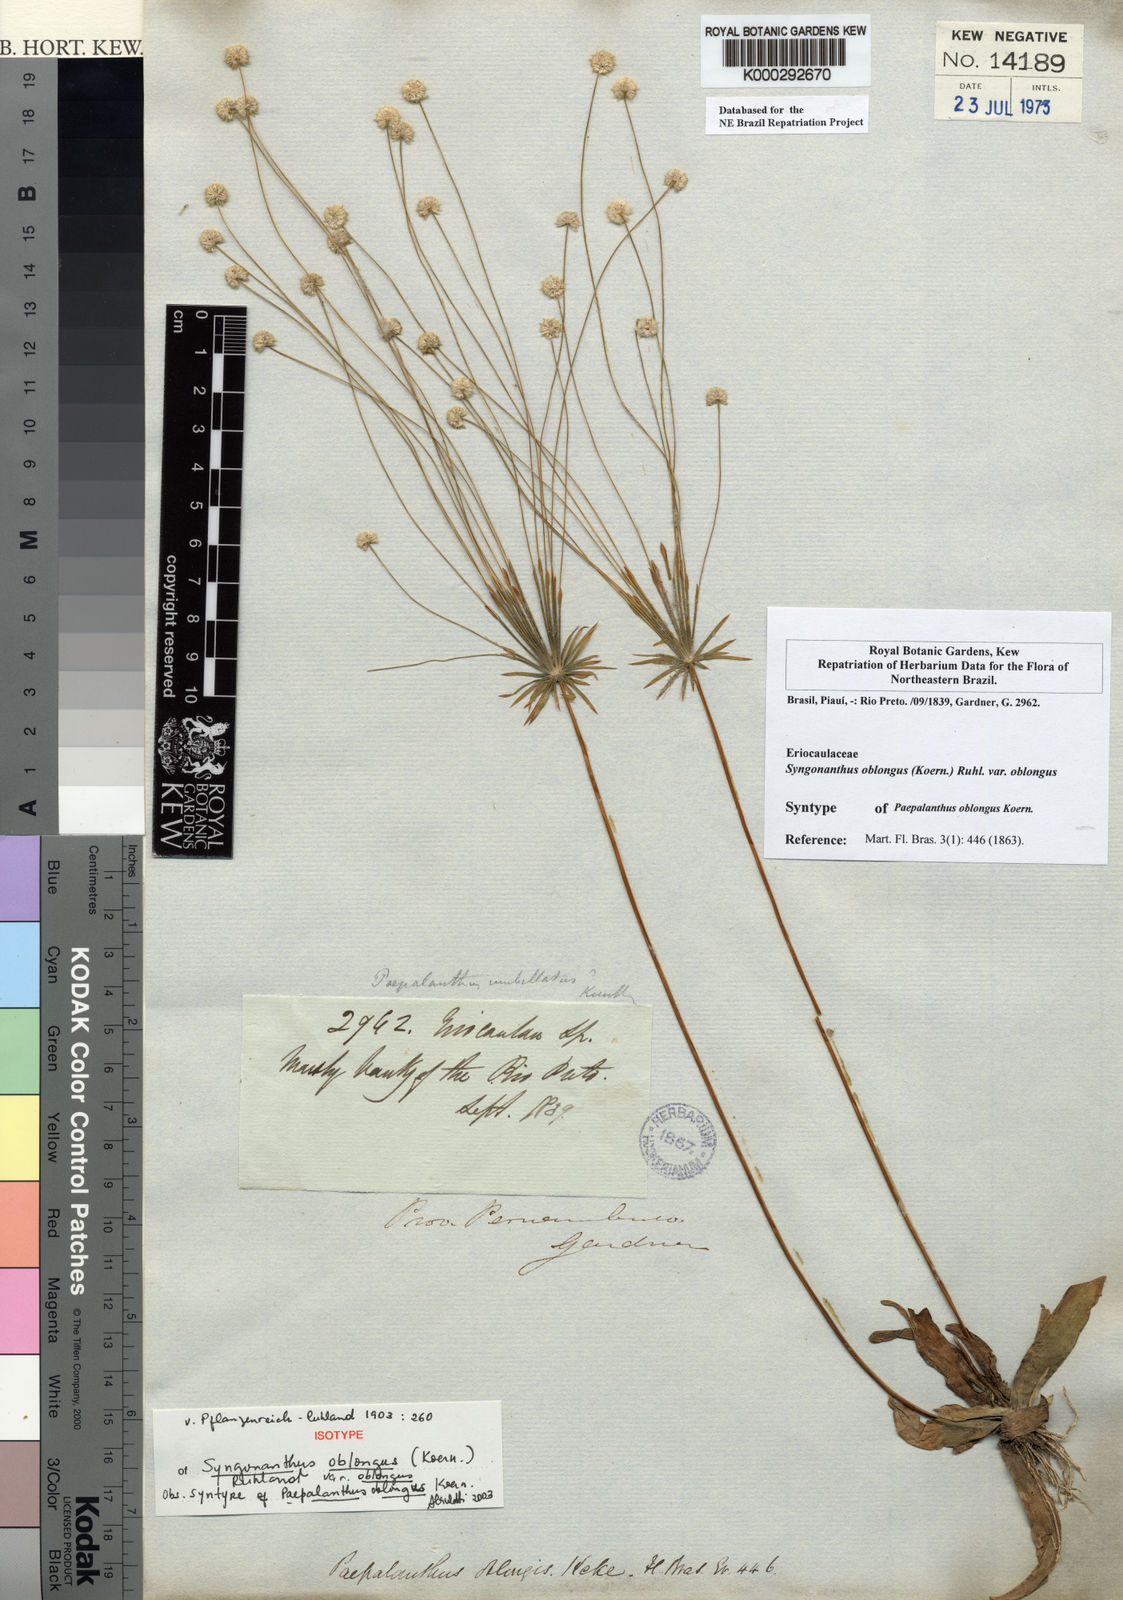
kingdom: Plantae
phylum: Tracheophyta
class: Liliopsida
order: Poales
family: Eriocaulaceae
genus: Syngonanthus
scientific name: Syngonanthus oblongus
